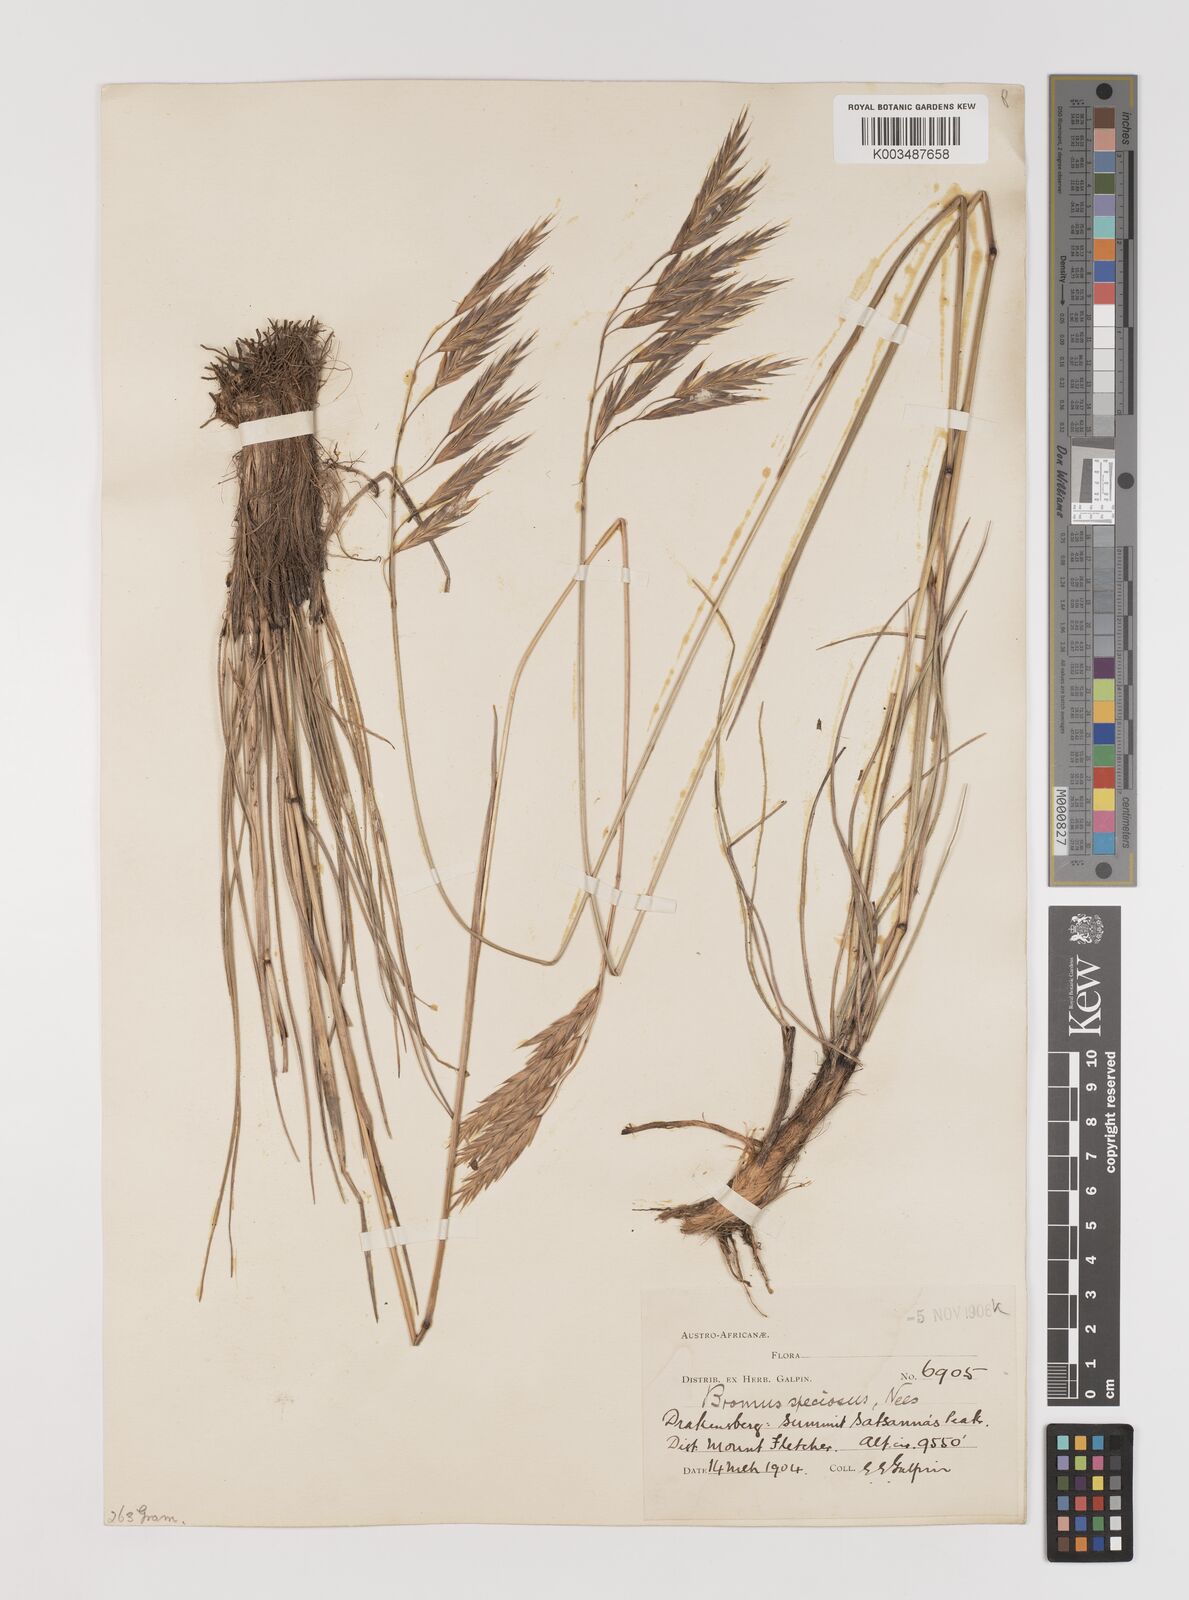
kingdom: Plantae
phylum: Tracheophyta
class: Liliopsida
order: Poales
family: Poaceae
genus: Bromus
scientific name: Bromus firmior
